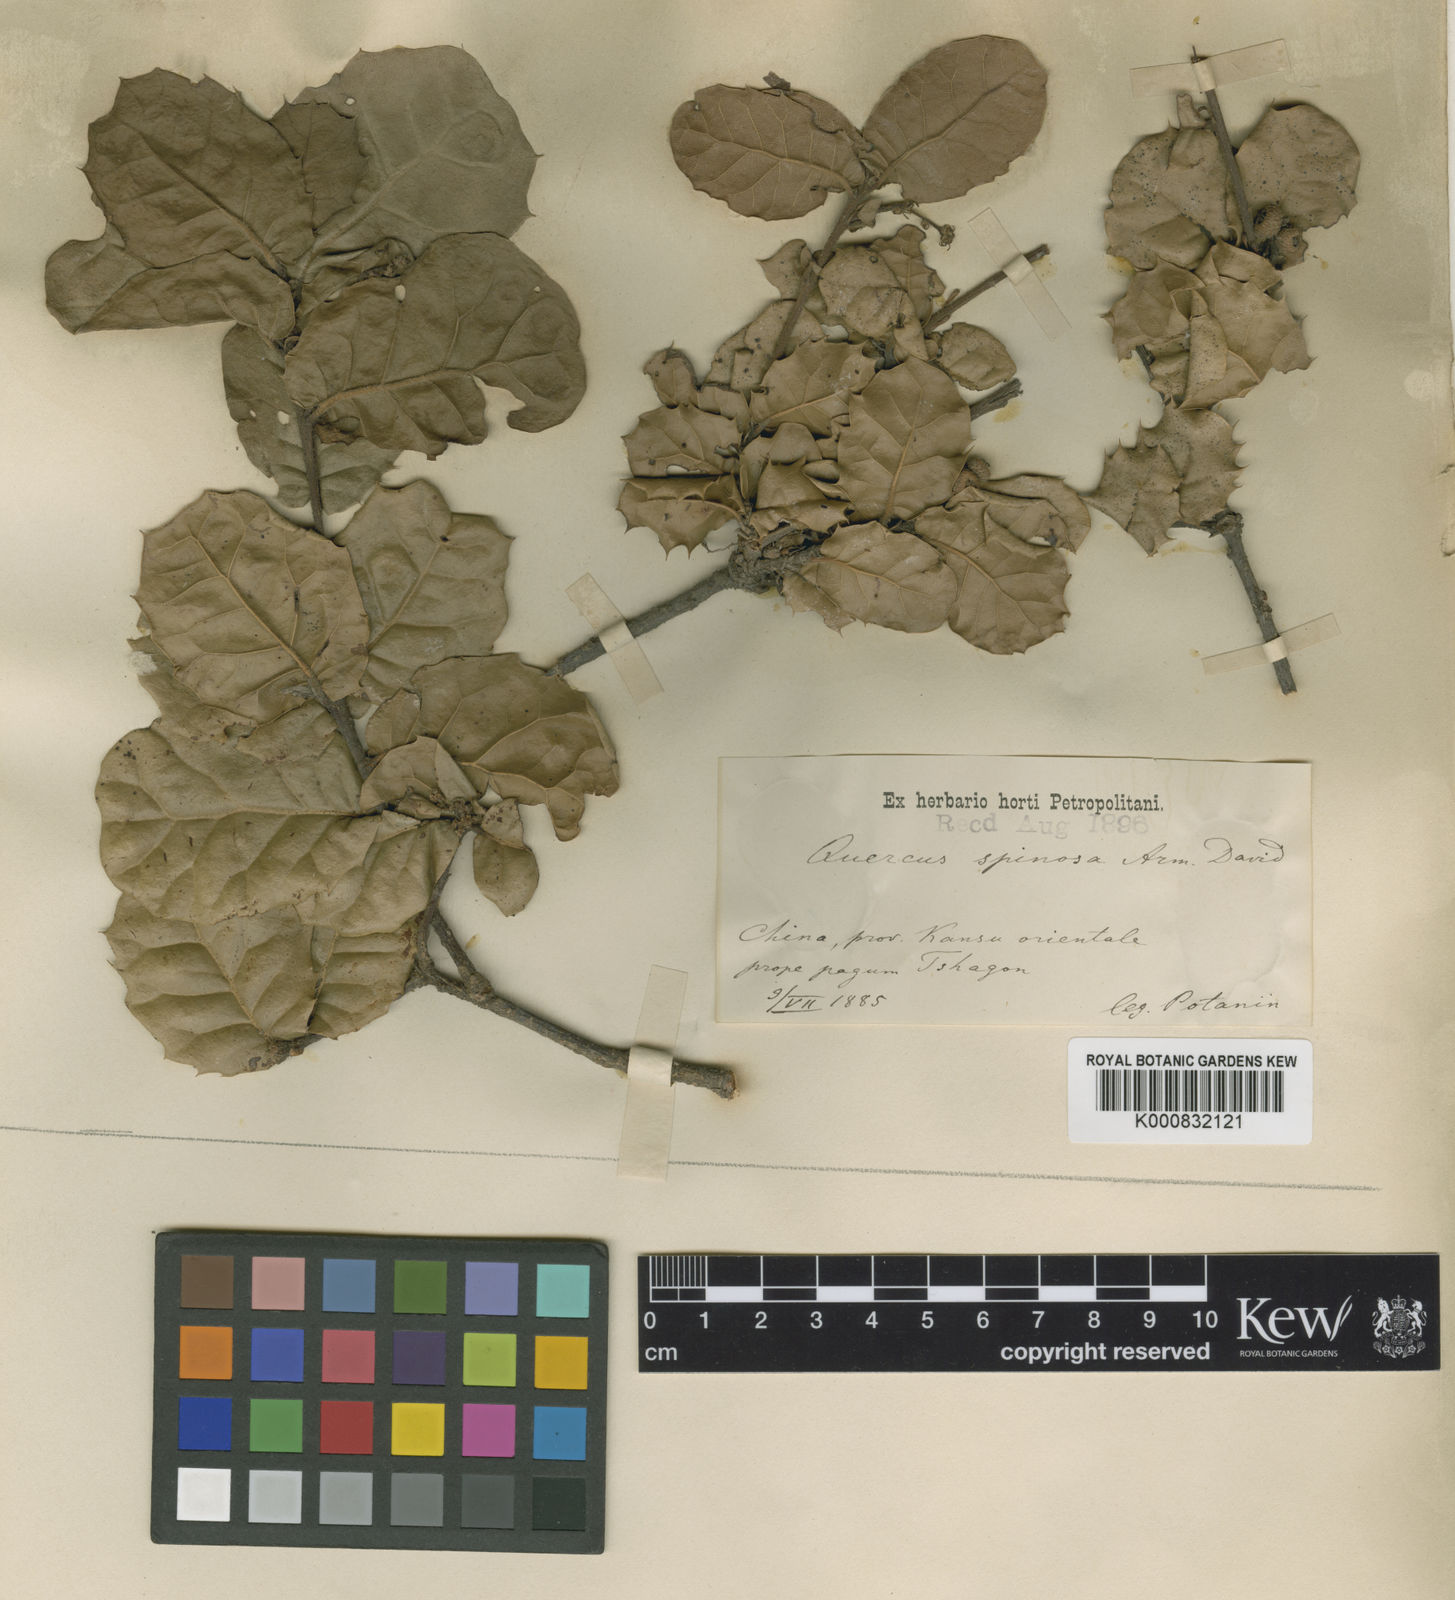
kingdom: Plantae
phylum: Tracheophyta
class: Magnoliopsida
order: Fagales
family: Fagaceae
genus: Quercus
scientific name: Quercus
